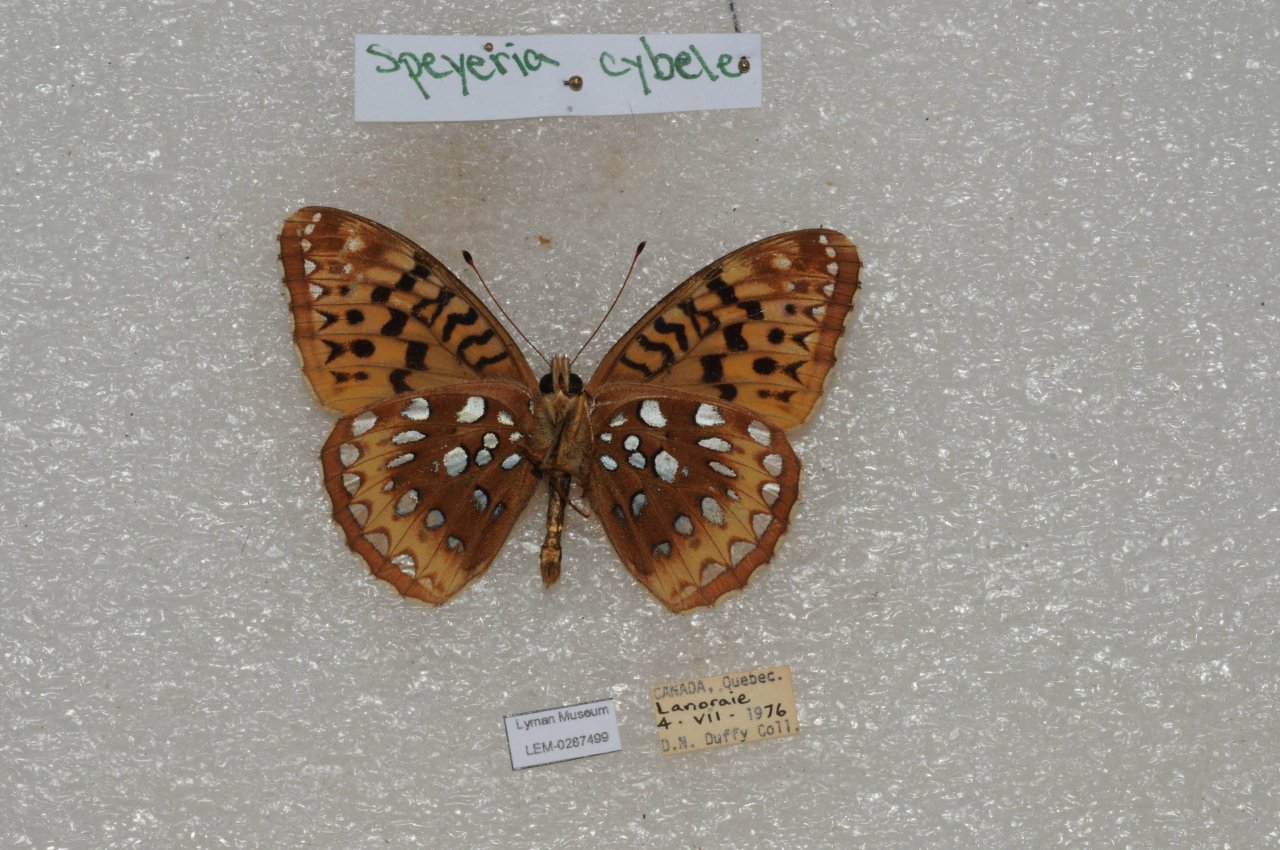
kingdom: Animalia
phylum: Arthropoda
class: Insecta
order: Lepidoptera
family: Nymphalidae
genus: Speyeria
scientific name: Speyeria cybele
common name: Great Spangled Fritillary
